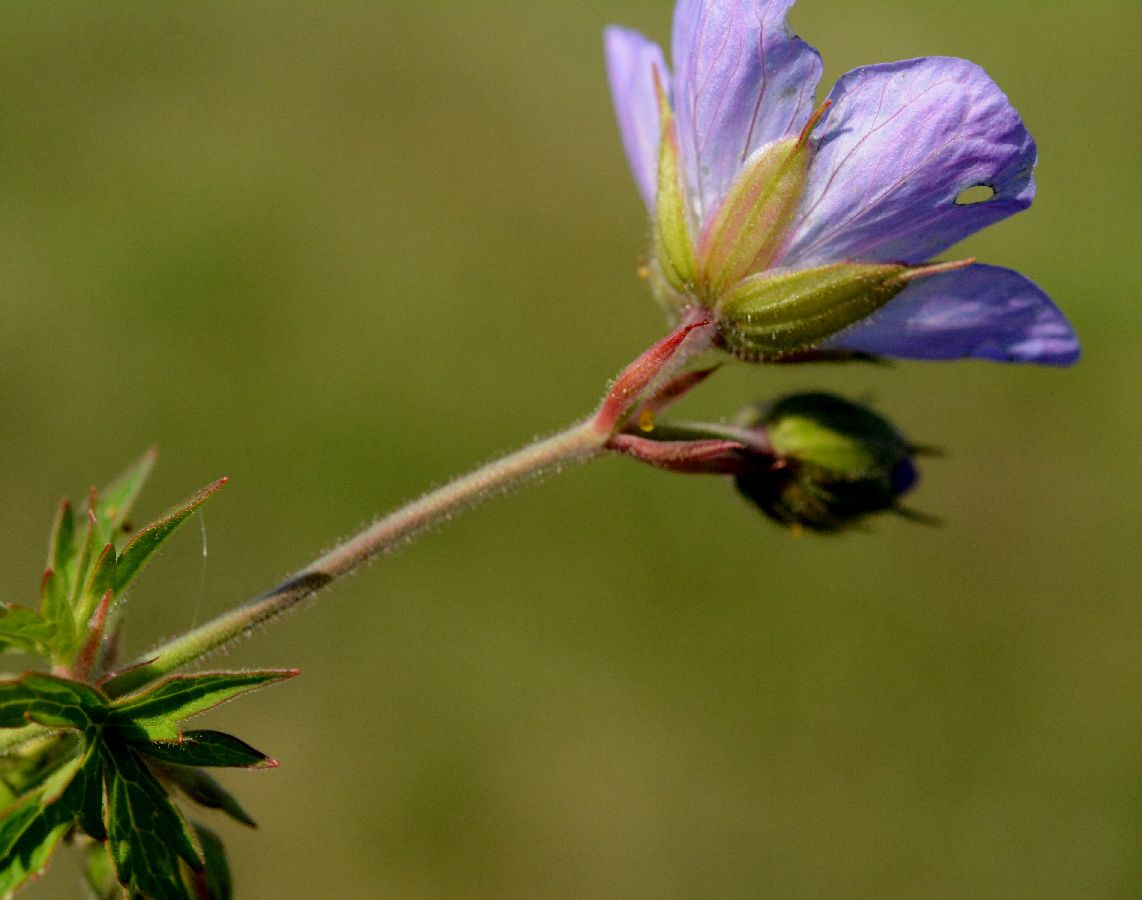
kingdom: Plantae
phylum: Tracheophyta
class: Magnoliopsida
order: Geraniales
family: Geraniaceae
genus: Geranium
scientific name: Geranium pratense
